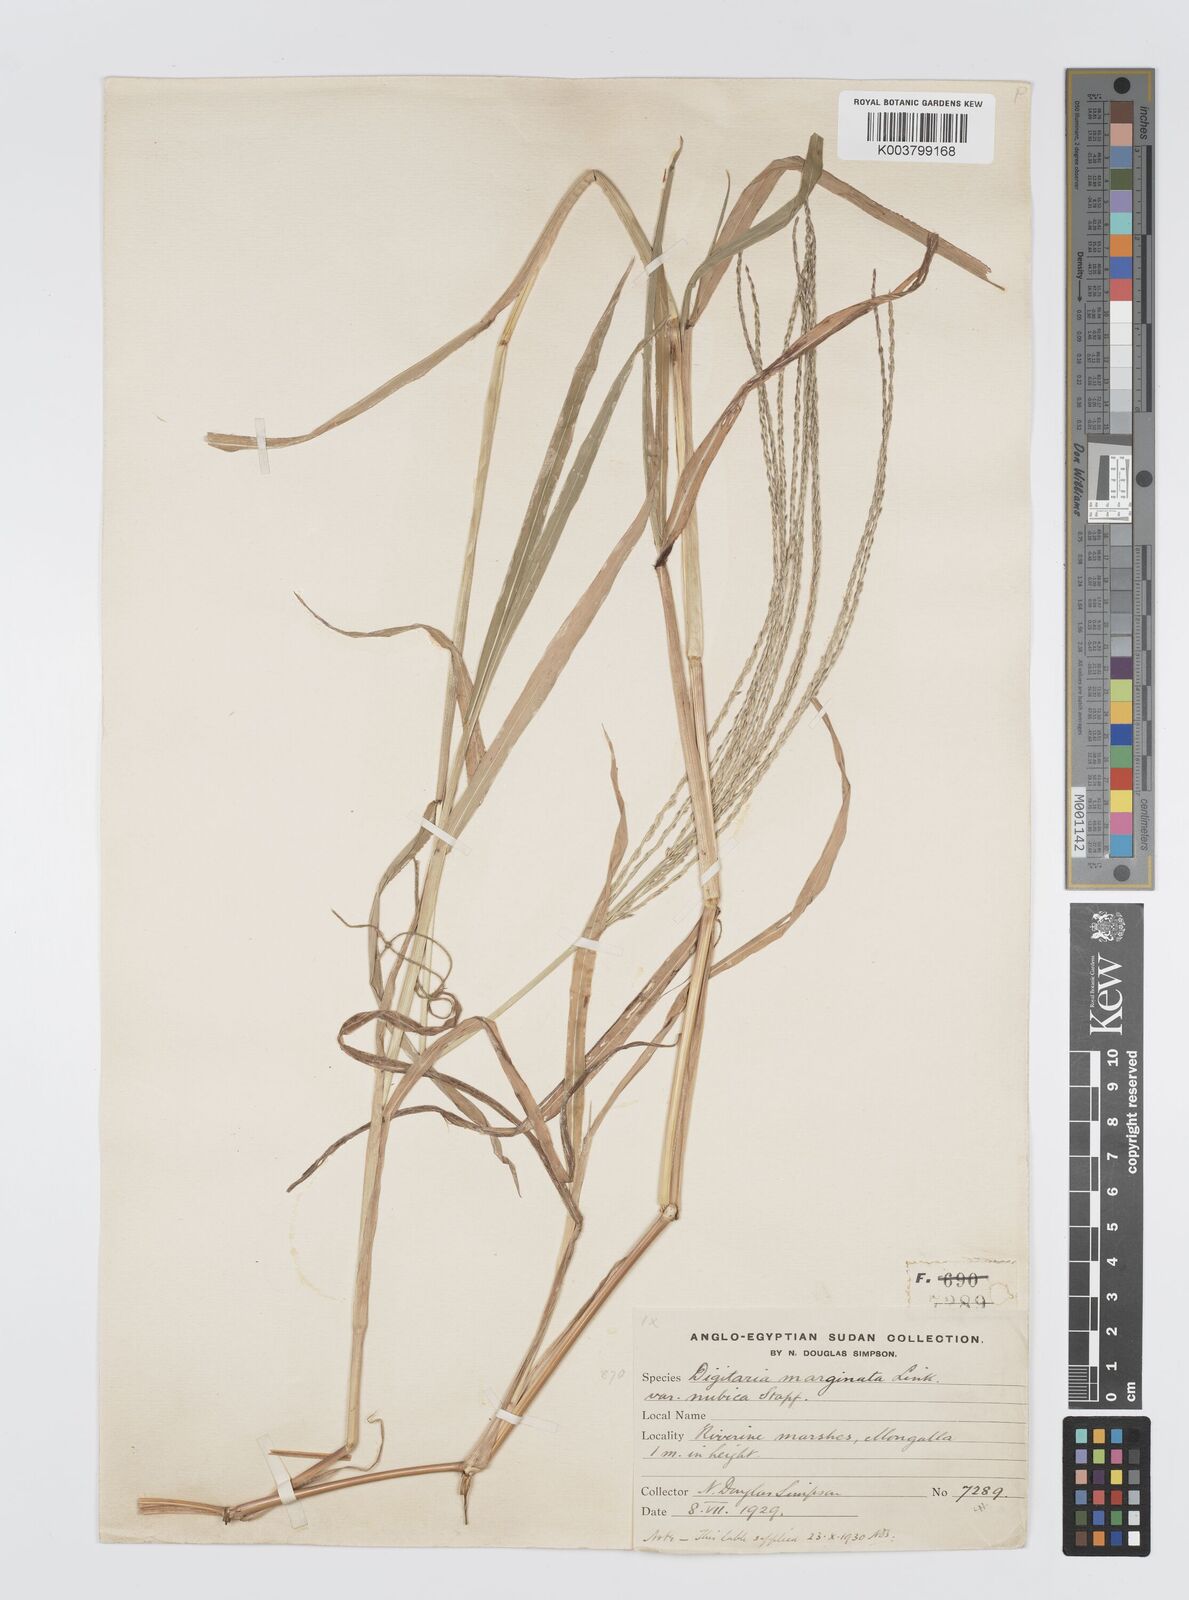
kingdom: Plantae
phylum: Tracheophyta
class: Liliopsida
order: Poales
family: Poaceae
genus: Digitaria
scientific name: Digitaria acuminatissima
